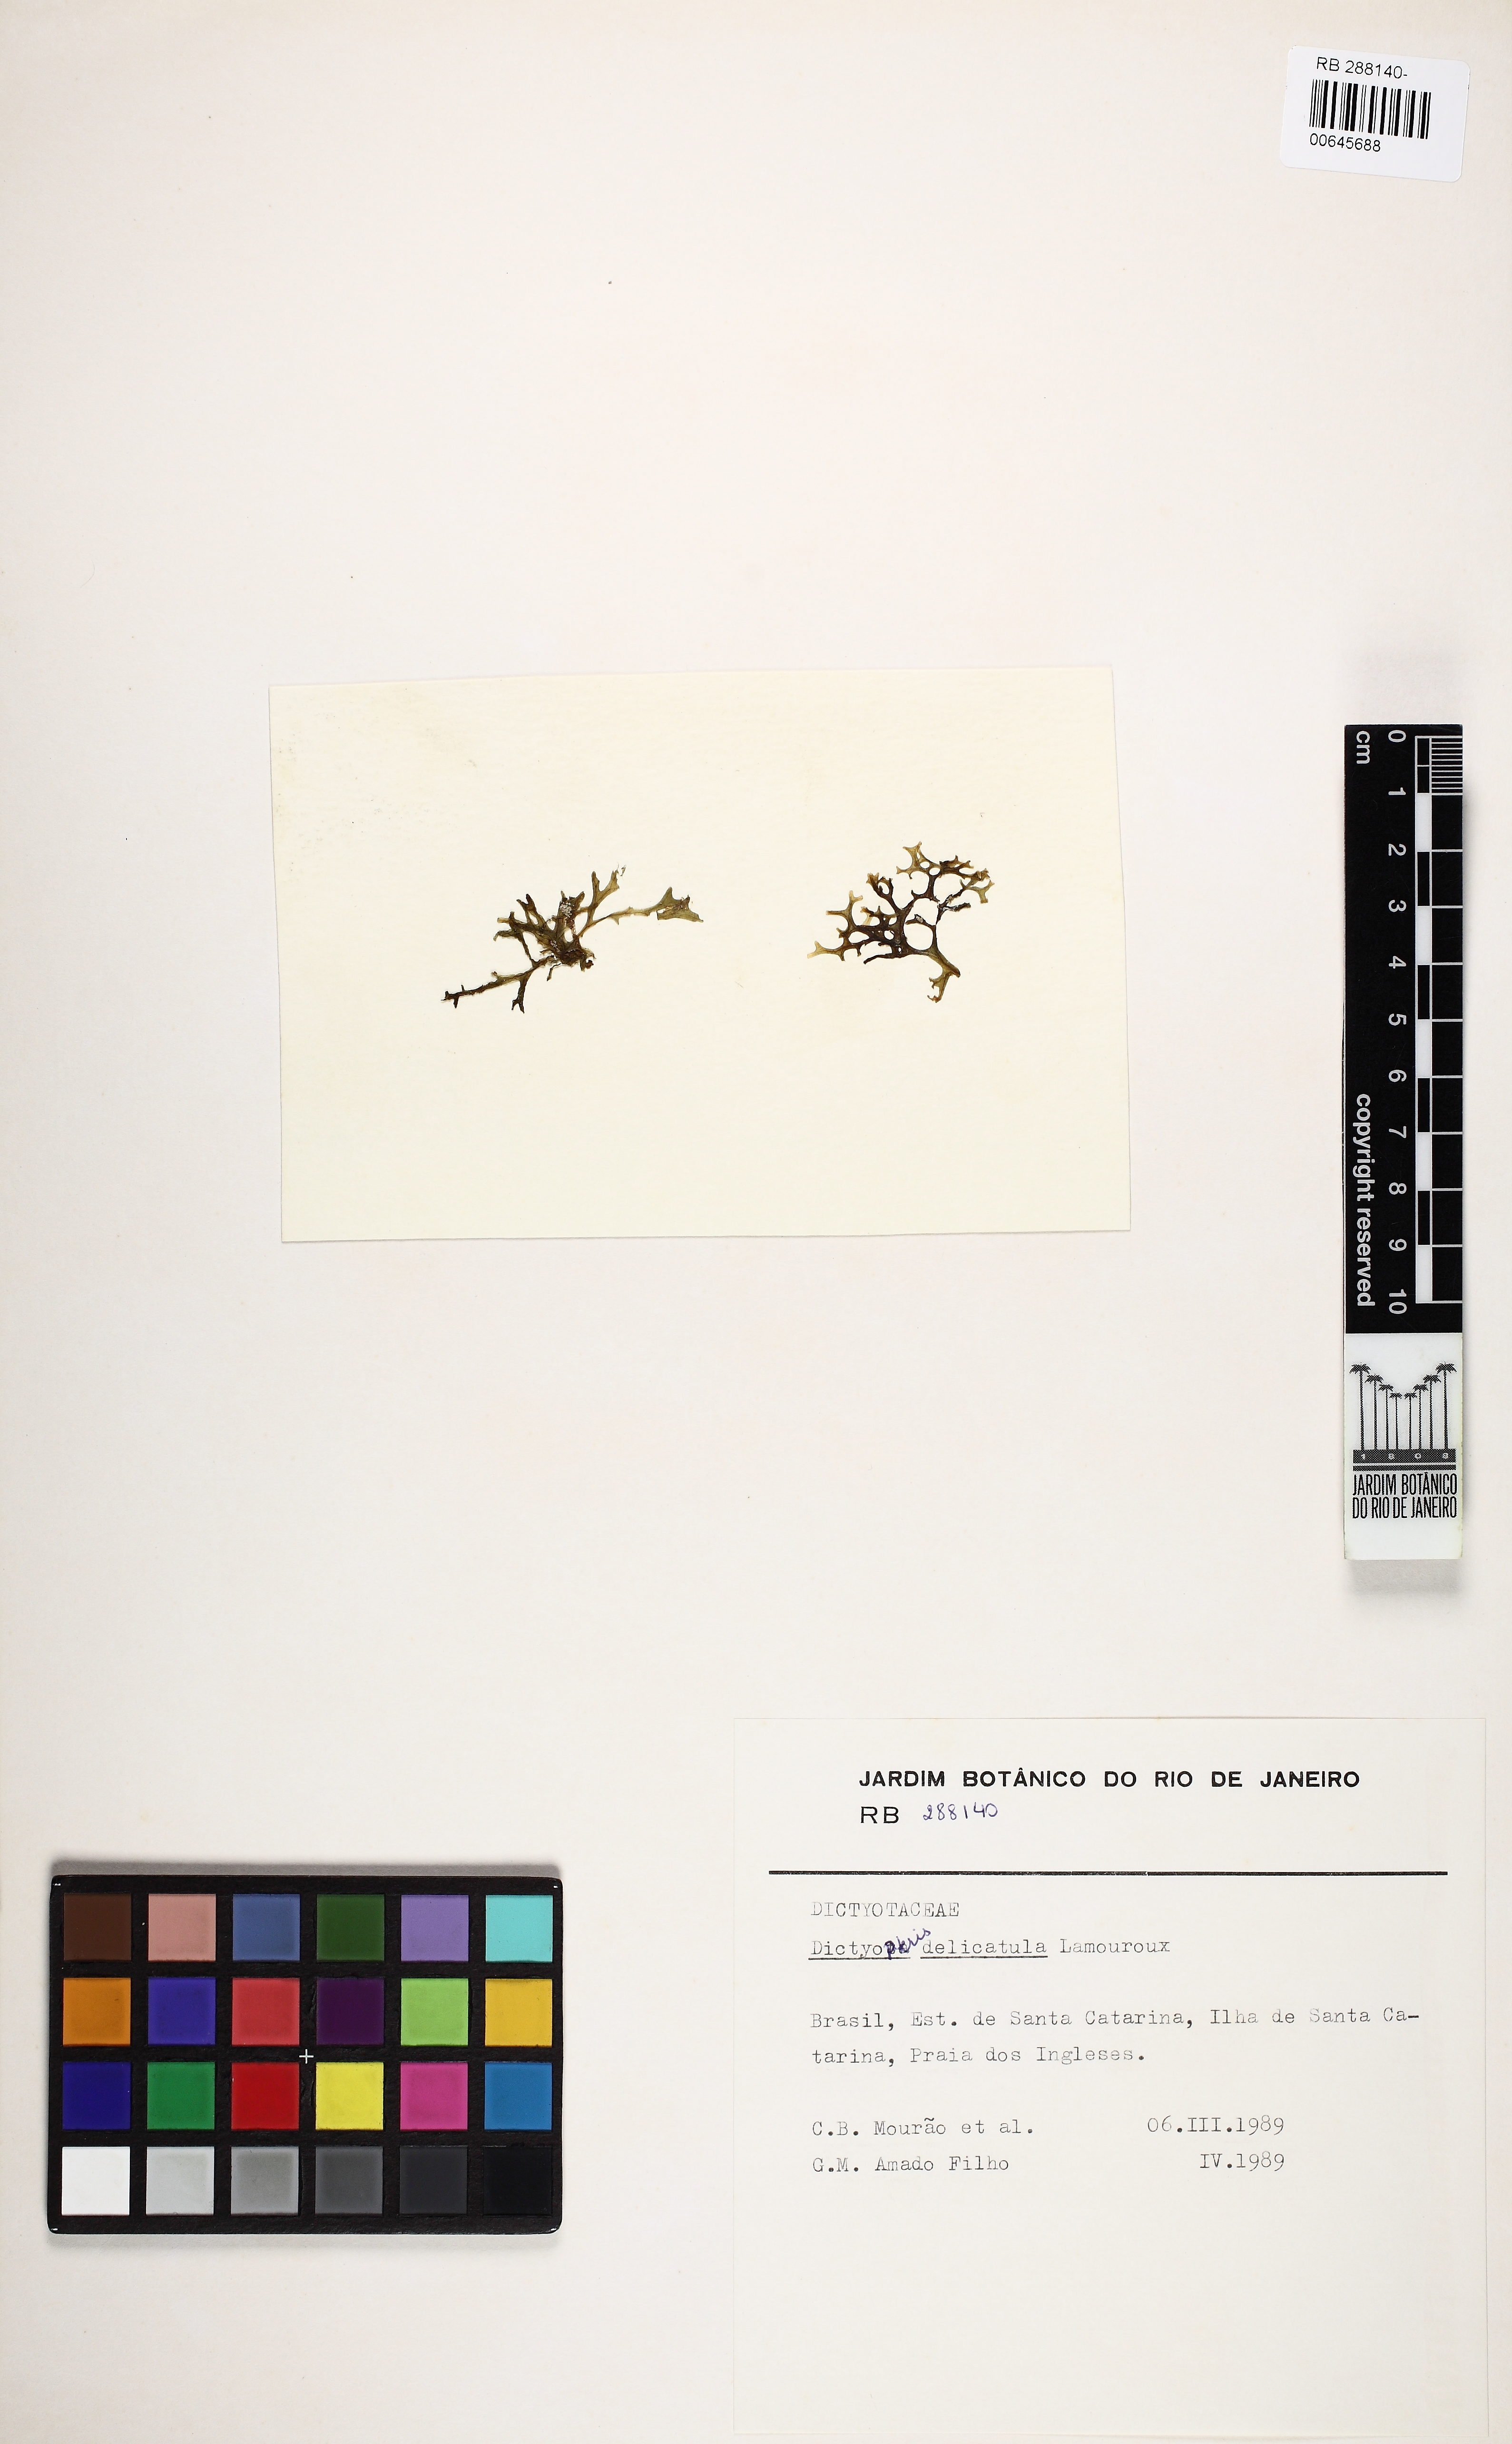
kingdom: Chromista
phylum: Ochrophyta
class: Phaeophyceae
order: Dictyotales
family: Dictyotaceae
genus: Dictyopteris
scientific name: Dictyopteris delicatula
